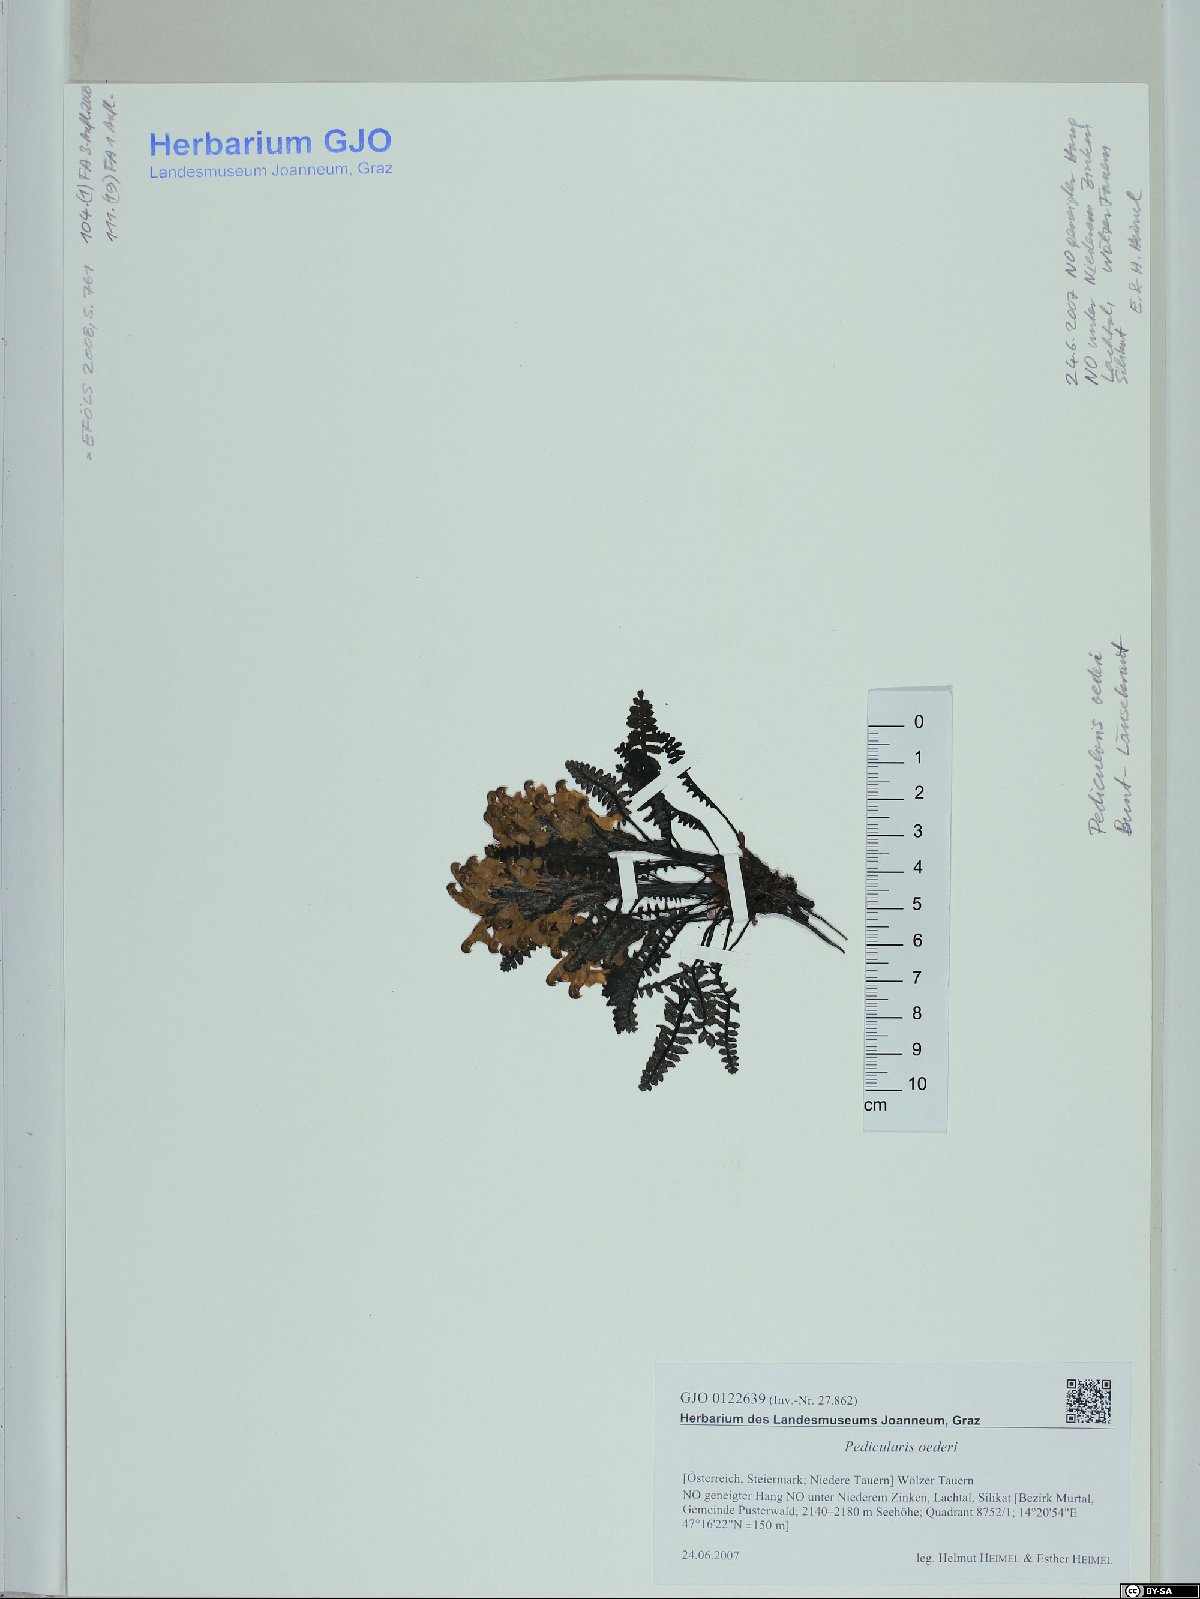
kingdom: Plantae
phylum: Tracheophyta
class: Magnoliopsida
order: Lamiales
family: Orobanchaceae
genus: Pedicularis
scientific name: Pedicularis oederi
